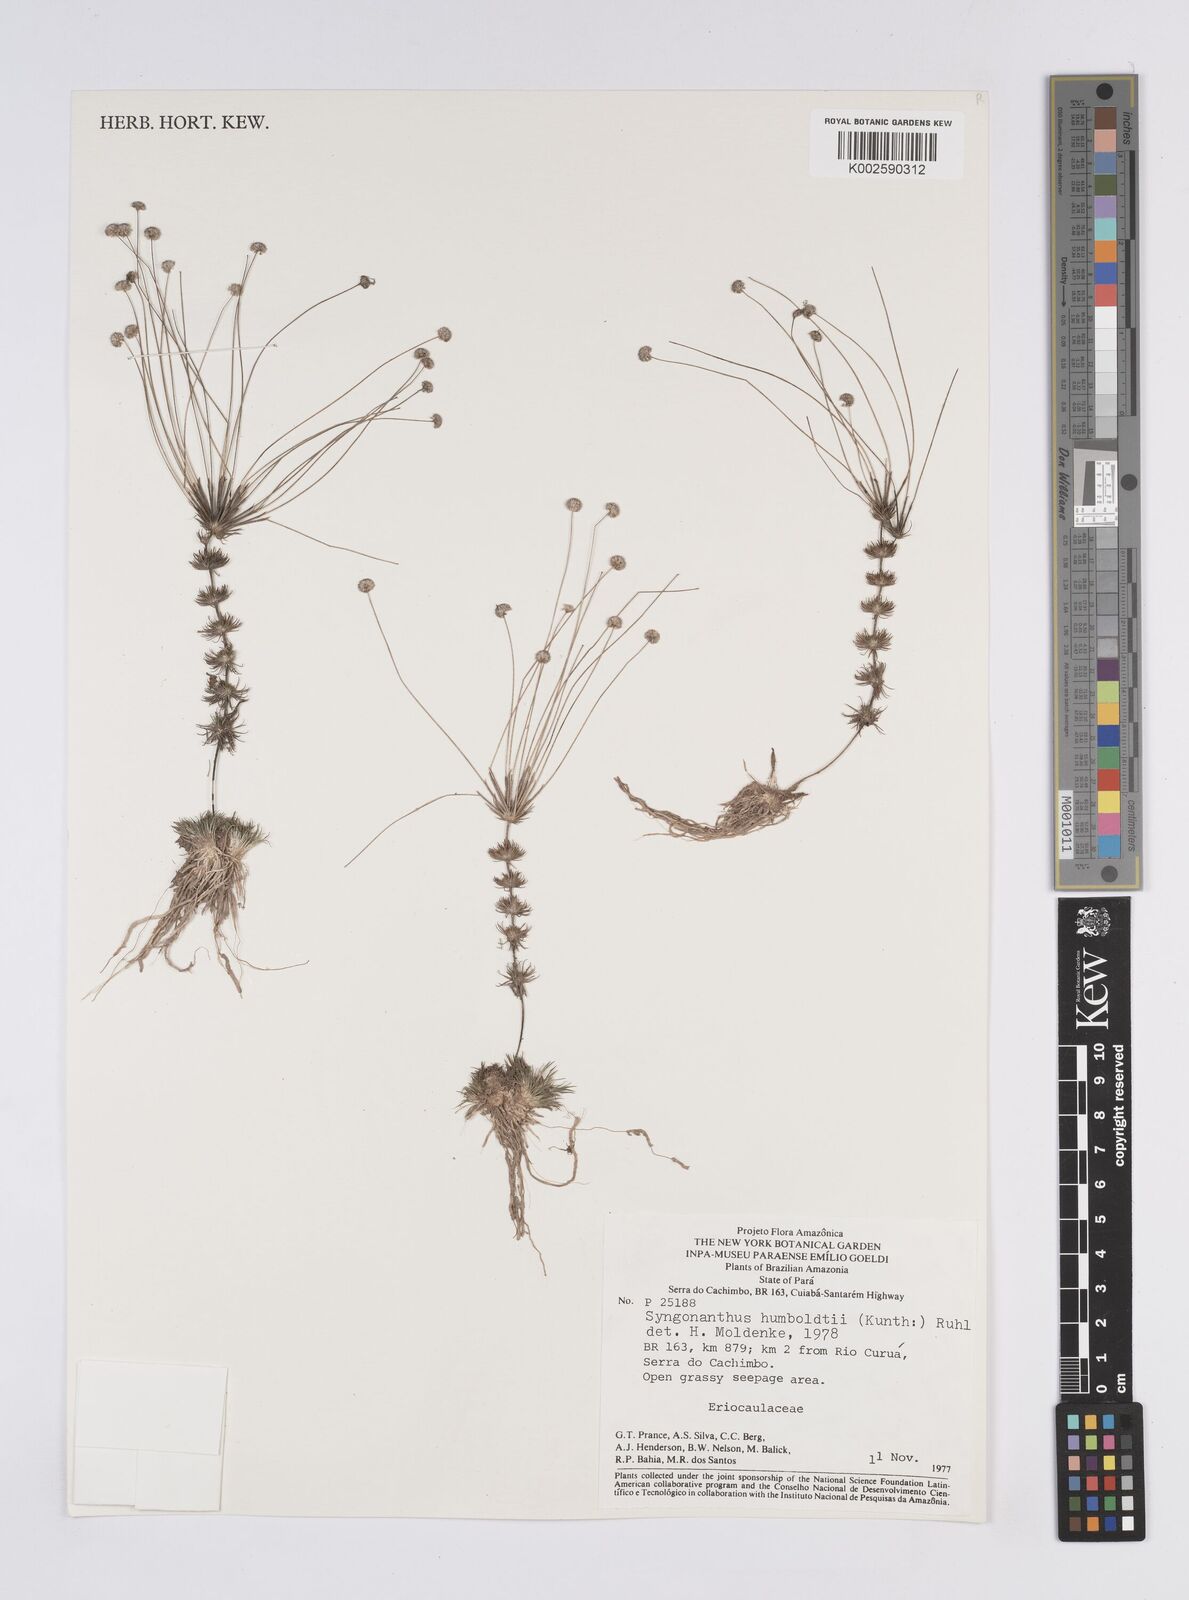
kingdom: Plantae
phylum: Tracheophyta
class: Liliopsida
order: Poales
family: Eriocaulaceae
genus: Syngonanthus
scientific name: Syngonanthus humboldtii
